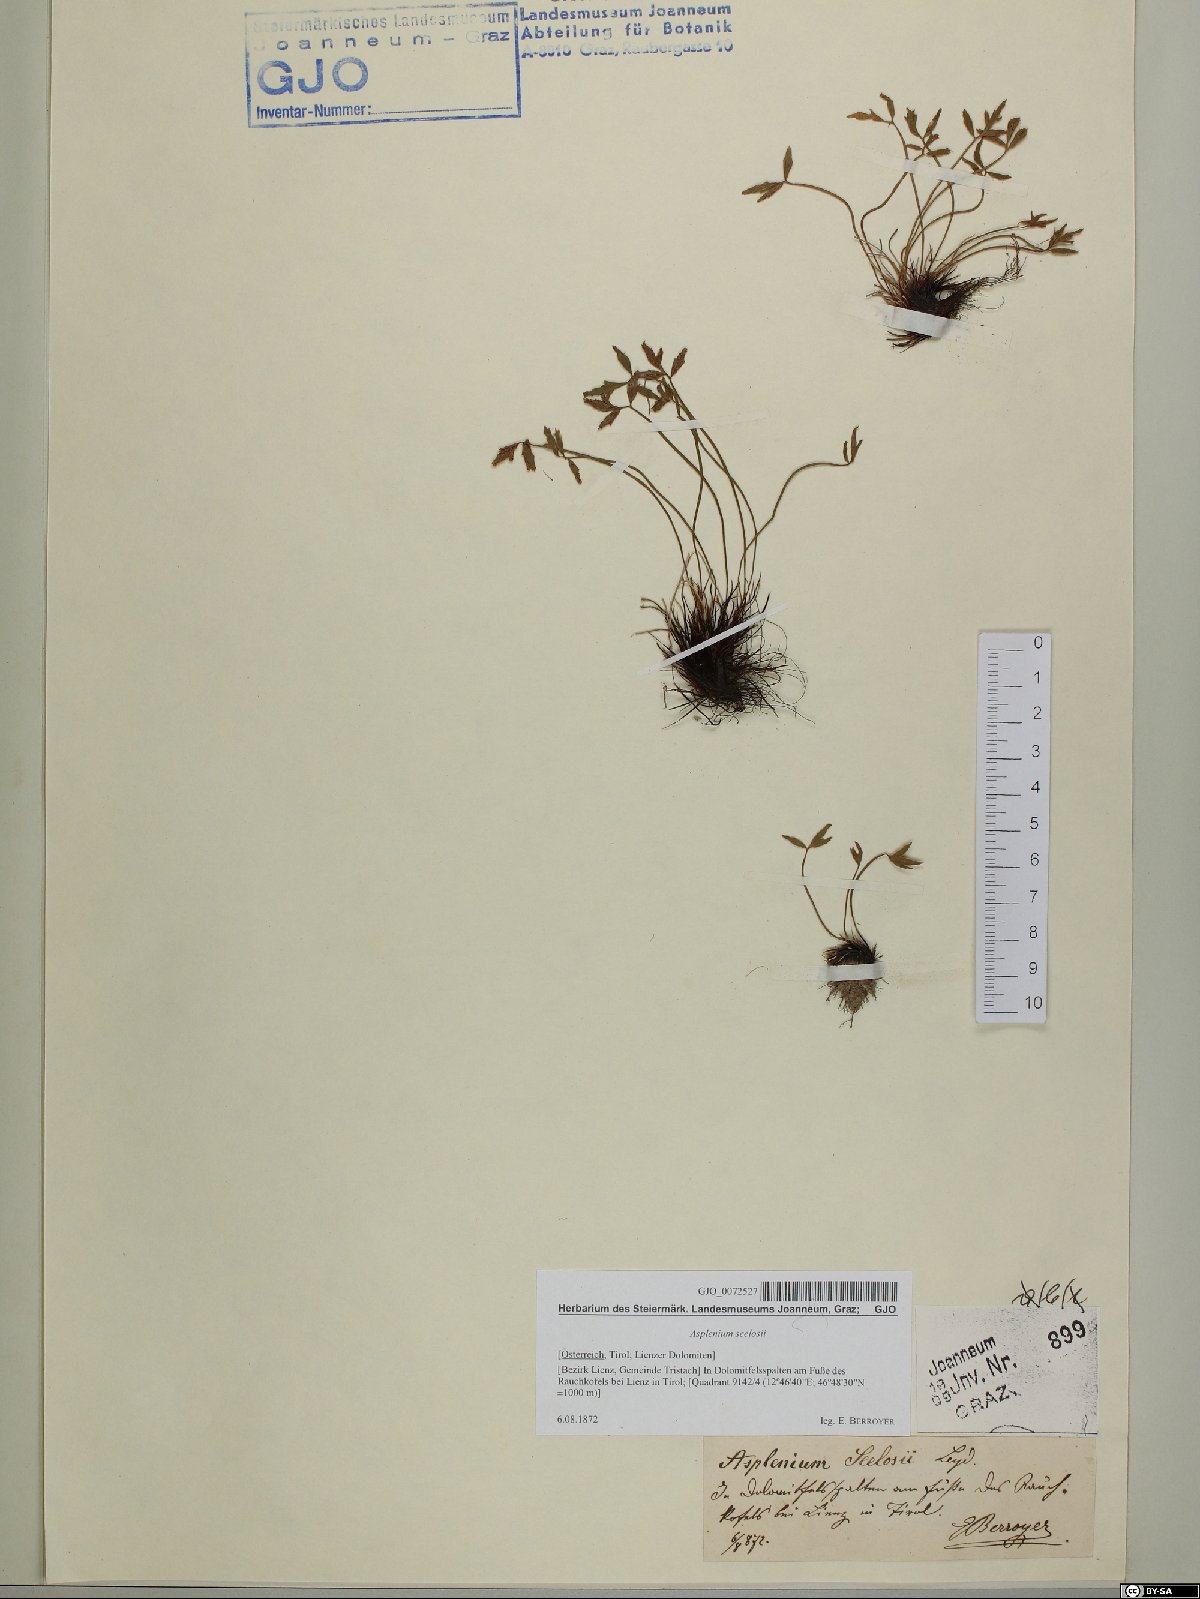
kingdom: Plantae
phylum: Tracheophyta
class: Polypodiopsida
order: Polypodiales
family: Aspleniaceae
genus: Asplenium
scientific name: Asplenium seelosii
